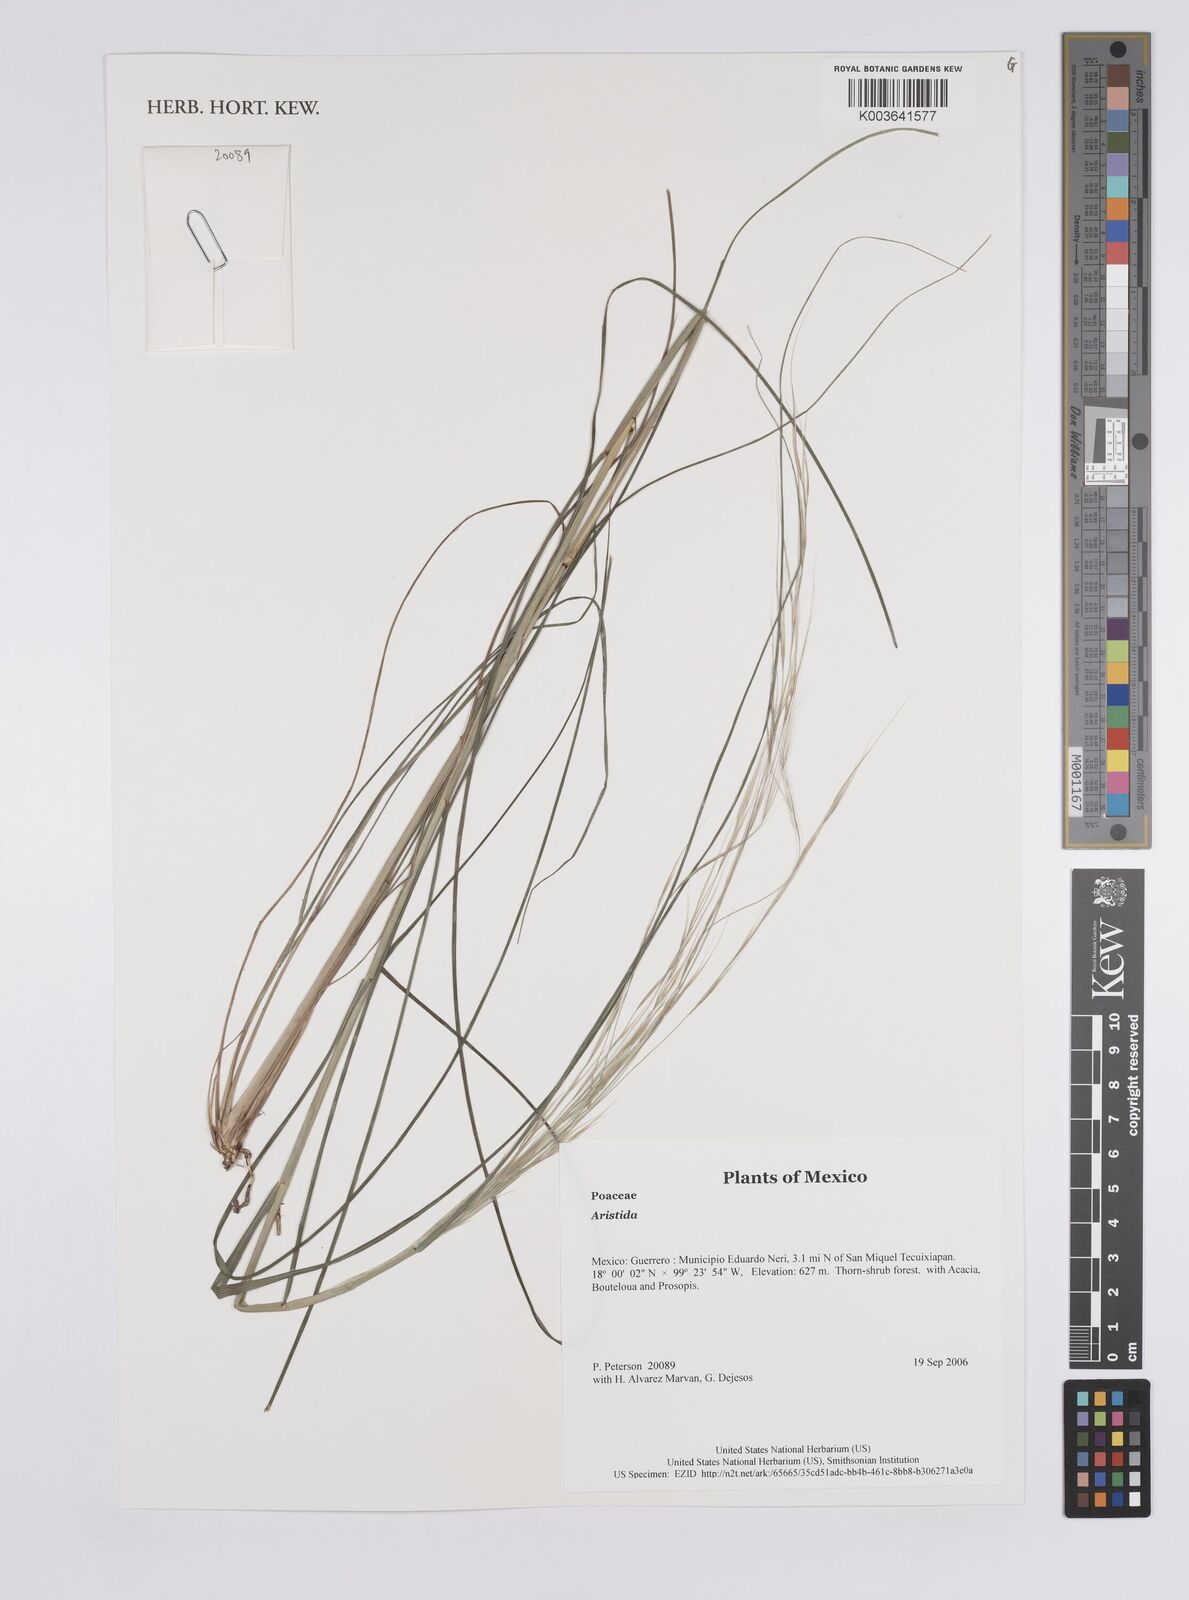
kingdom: Plantae
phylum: Tracheophyta
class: Liliopsida
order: Poales
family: Poaceae
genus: Aristida
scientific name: Aristida
